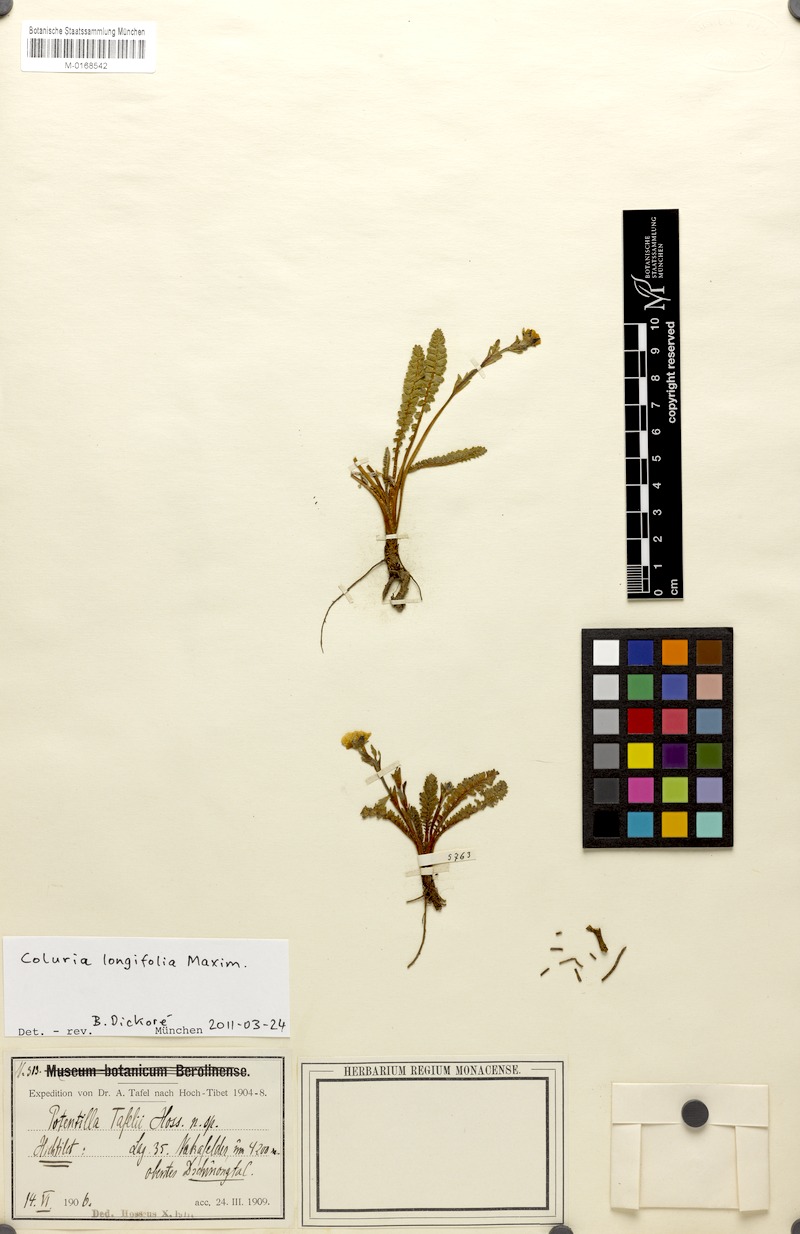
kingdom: Plantae
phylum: Tracheophyta
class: Magnoliopsida
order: Rosales
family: Rosaceae
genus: Geum
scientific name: Geum longifolium
